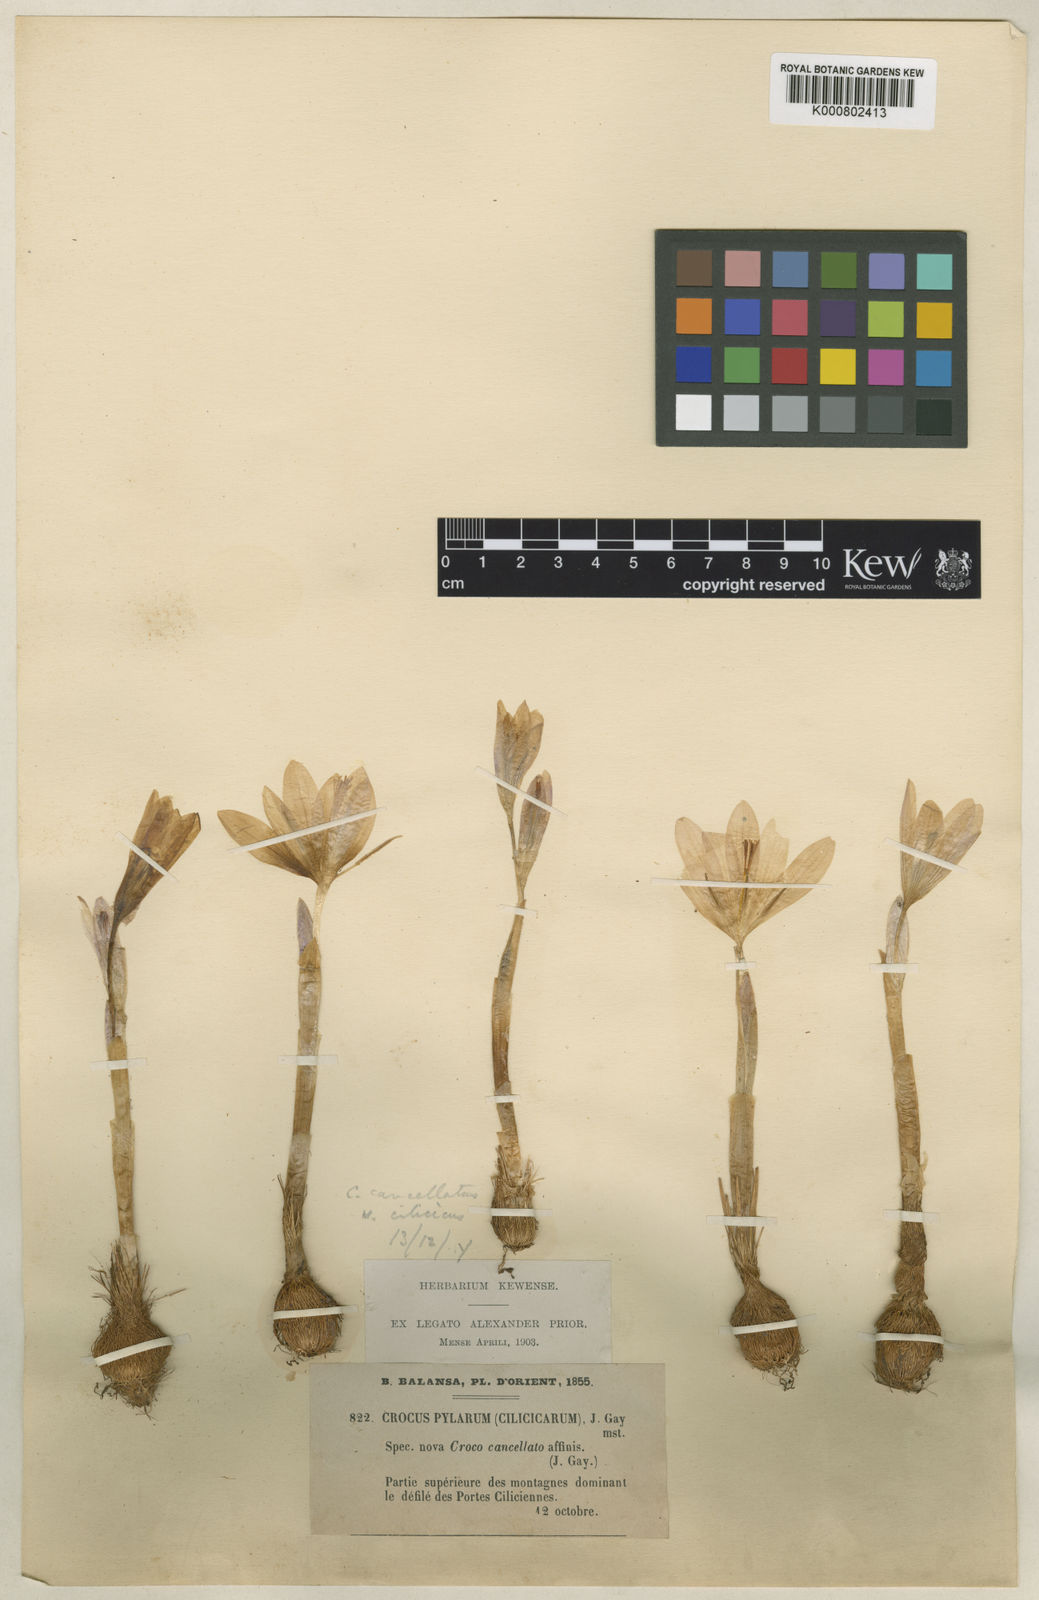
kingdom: Plantae
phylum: Tracheophyta
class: Liliopsida
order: Asparagales
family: Iridaceae
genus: Crocus
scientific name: Crocus cancellatus
